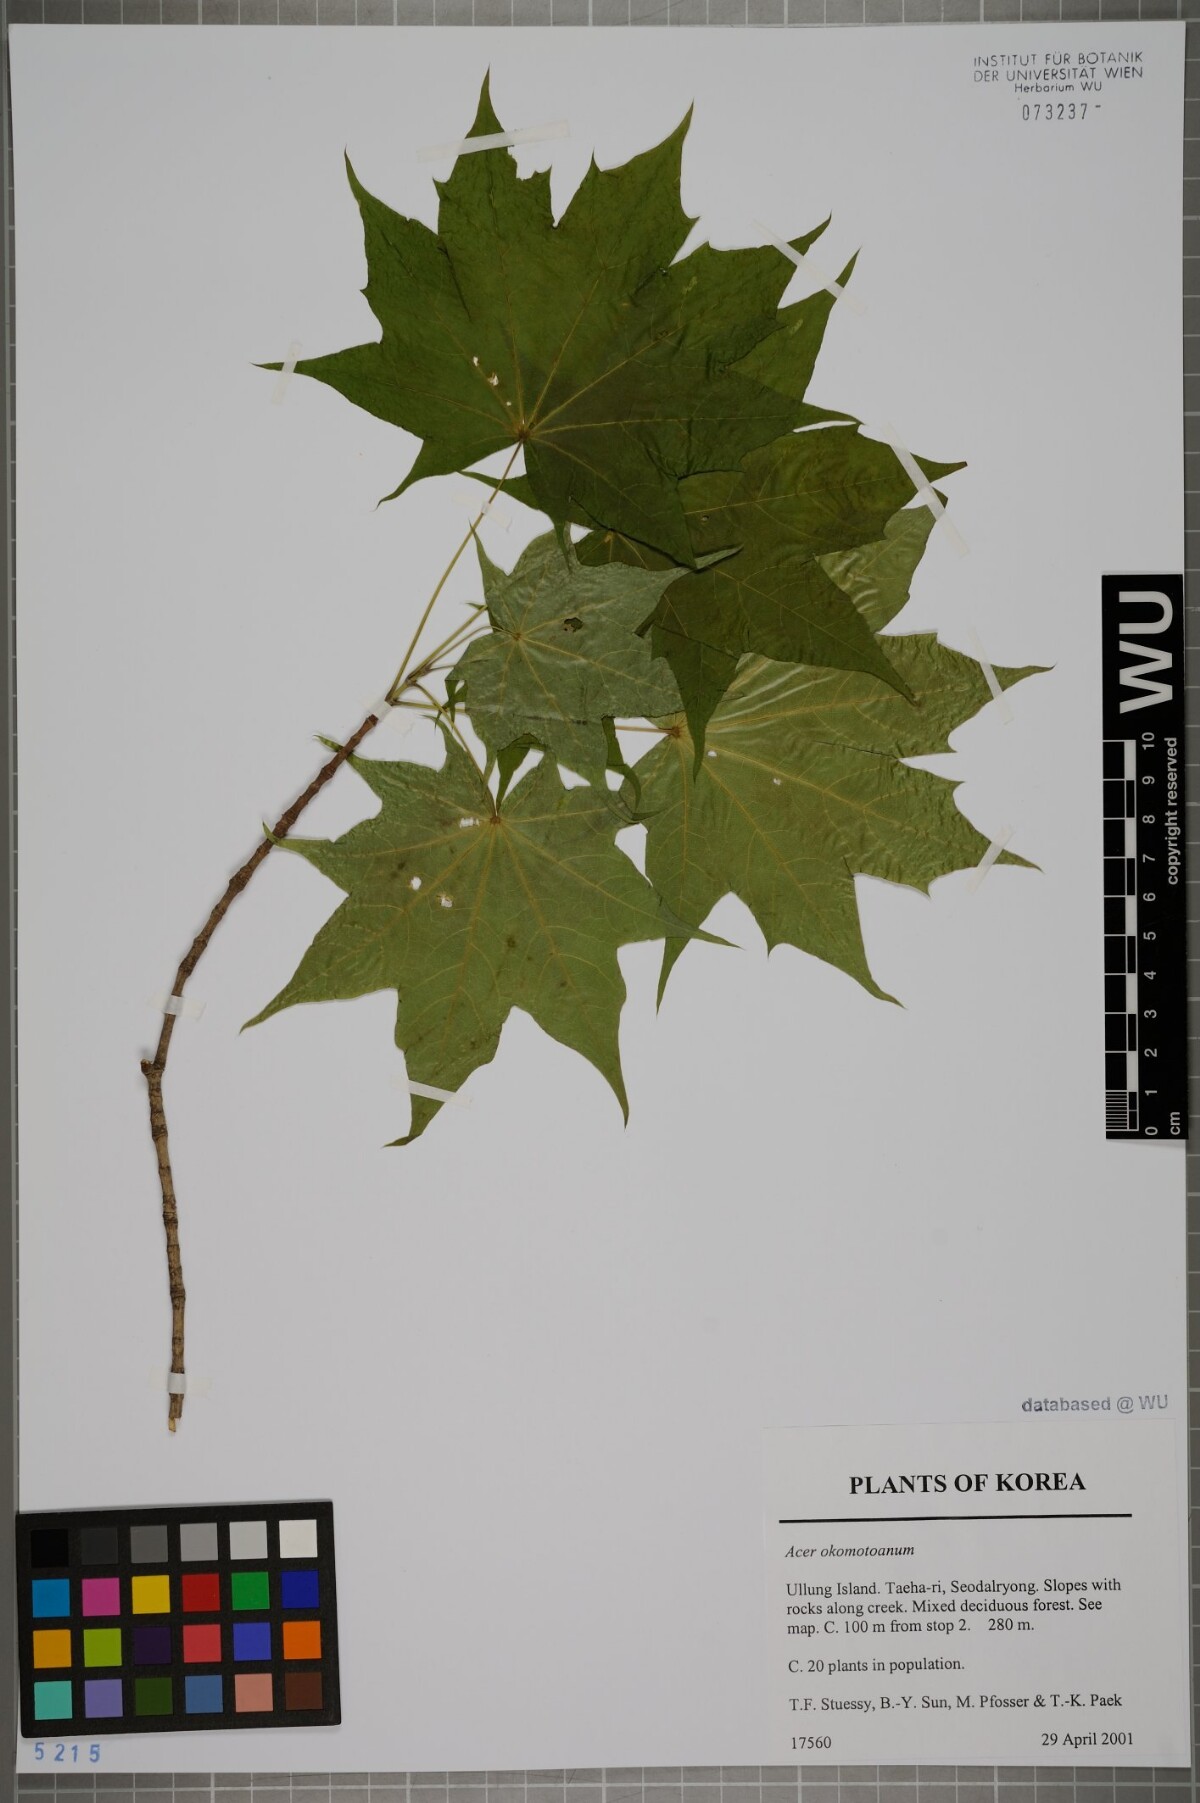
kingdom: Plantae
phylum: Tracheophyta
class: Magnoliopsida
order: Sapindales
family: Sapindaceae
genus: Acer
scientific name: Acer pictum
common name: The painted maple
